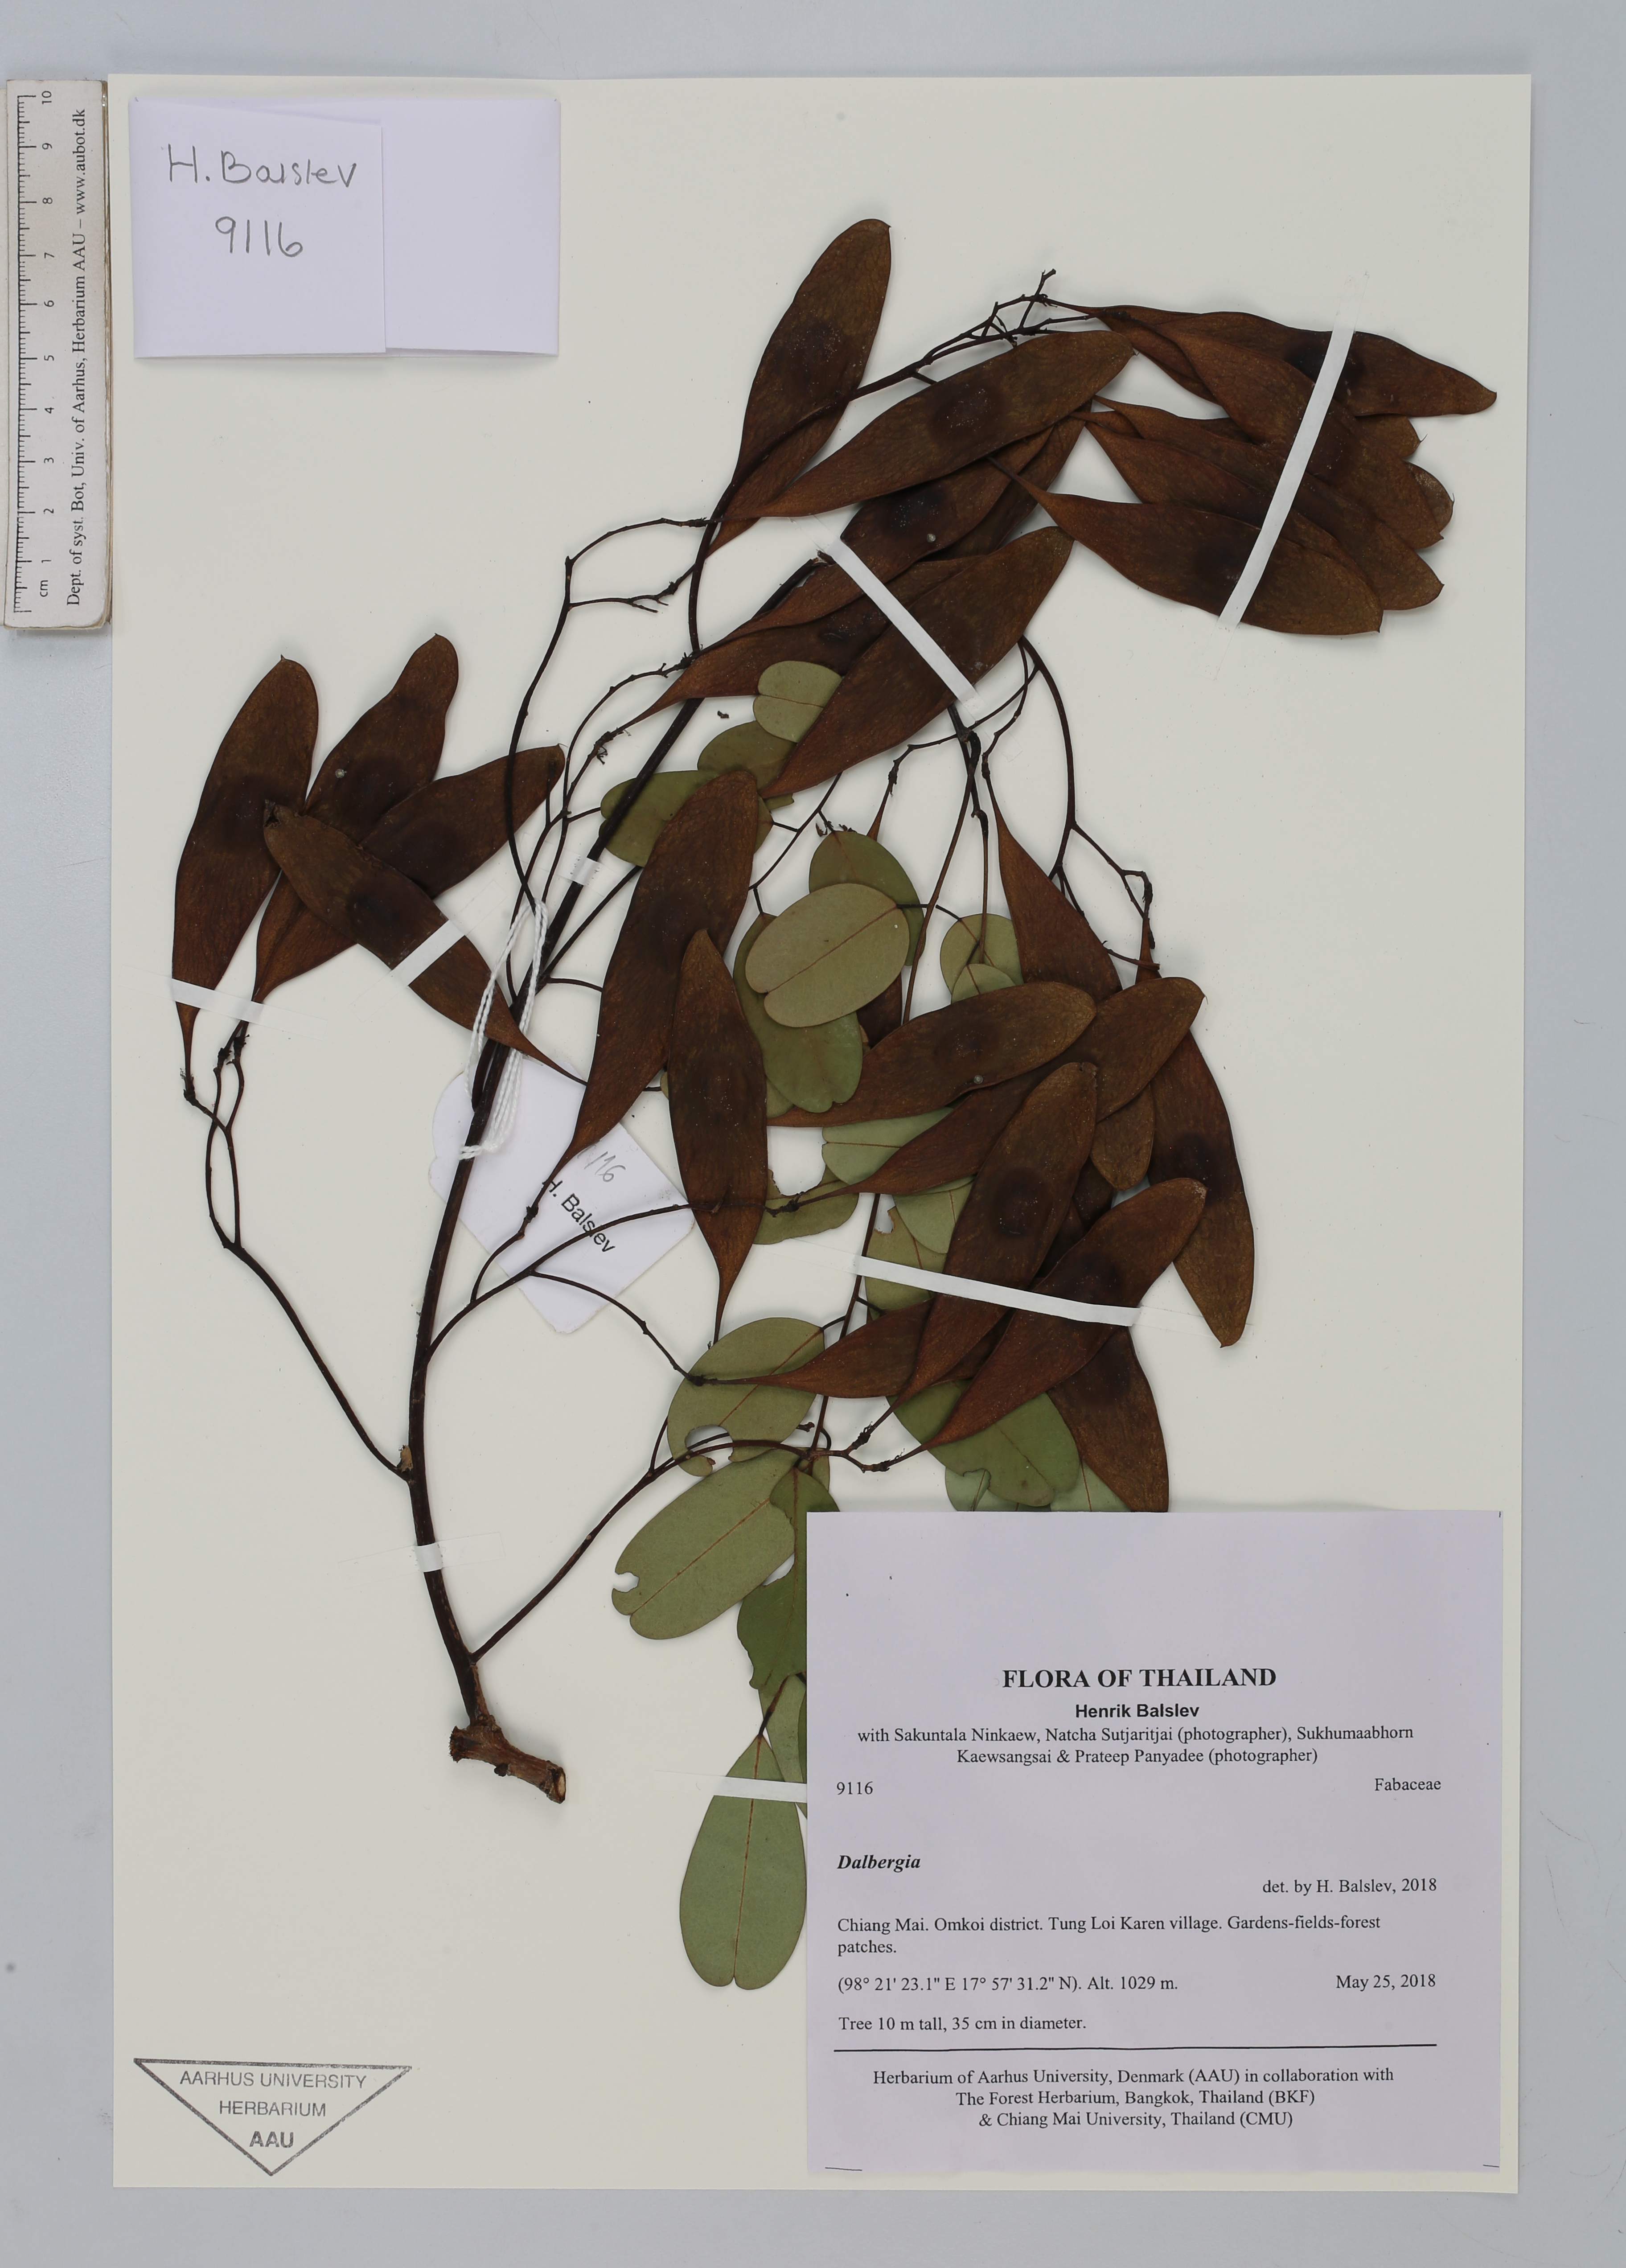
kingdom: Plantae
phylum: Tracheophyta
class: Magnoliopsida
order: Fabales
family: Fabaceae
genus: Dalbergia
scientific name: Dalbergia
